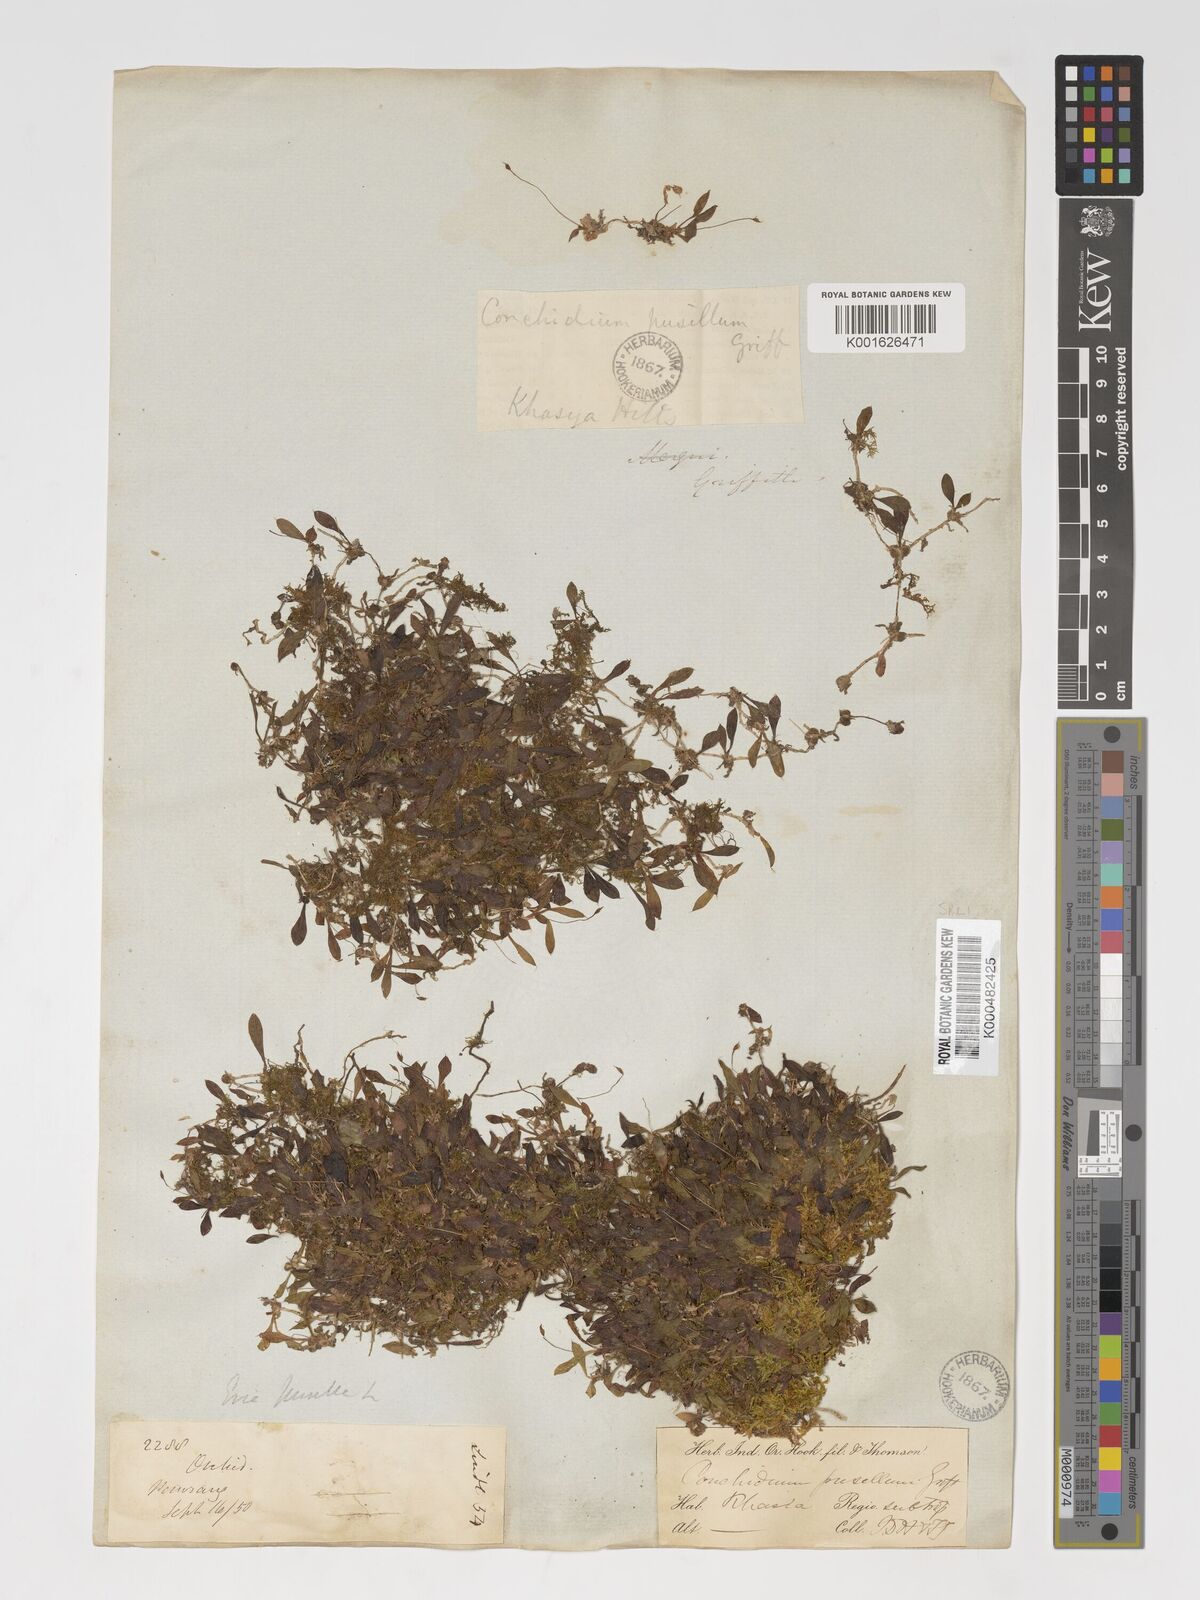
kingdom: Plantae
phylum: Tracheophyta
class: Liliopsida
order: Asparagales
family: Orchidaceae
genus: Porpax
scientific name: Porpax pusilla
